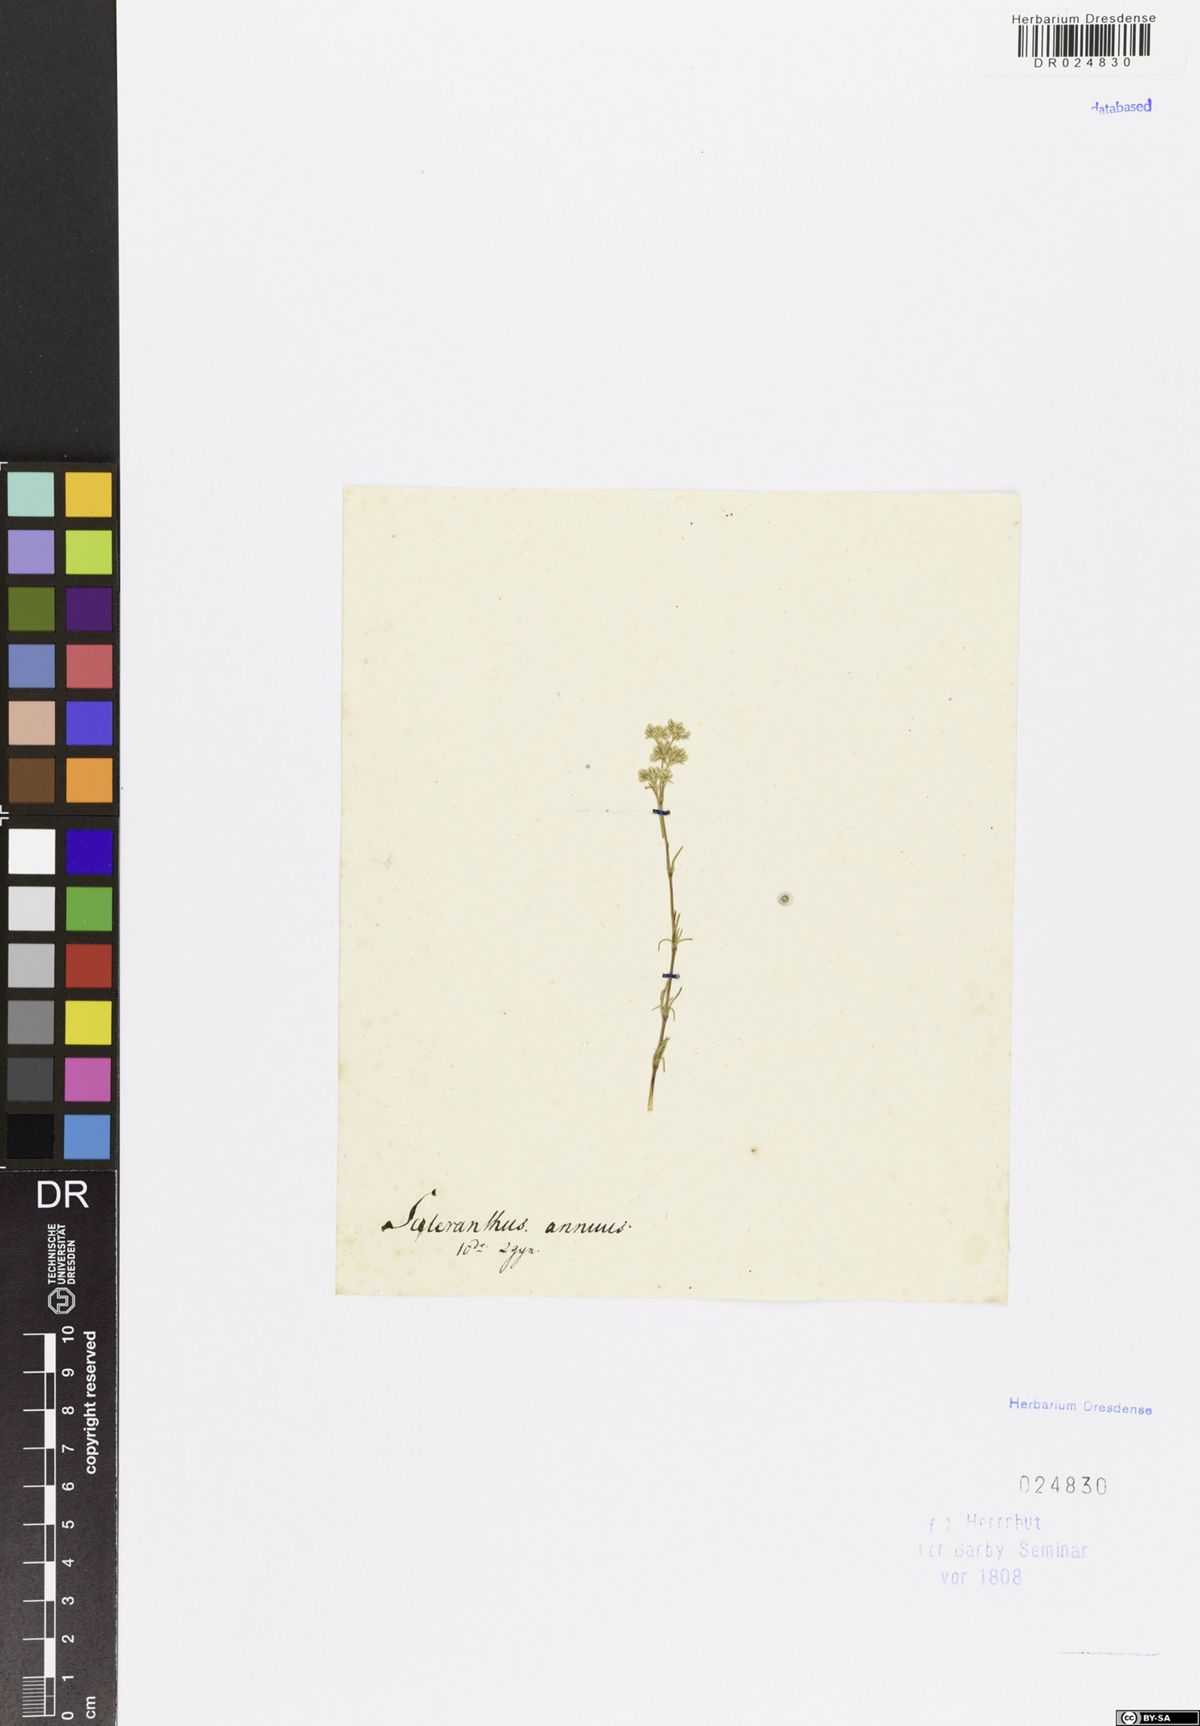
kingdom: Plantae
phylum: Tracheophyta
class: Magnoliopsida
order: Caryophyllales
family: Caryophyllaceae
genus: Scleranthus
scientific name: Scleranthus perennis
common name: Perennial knawel
